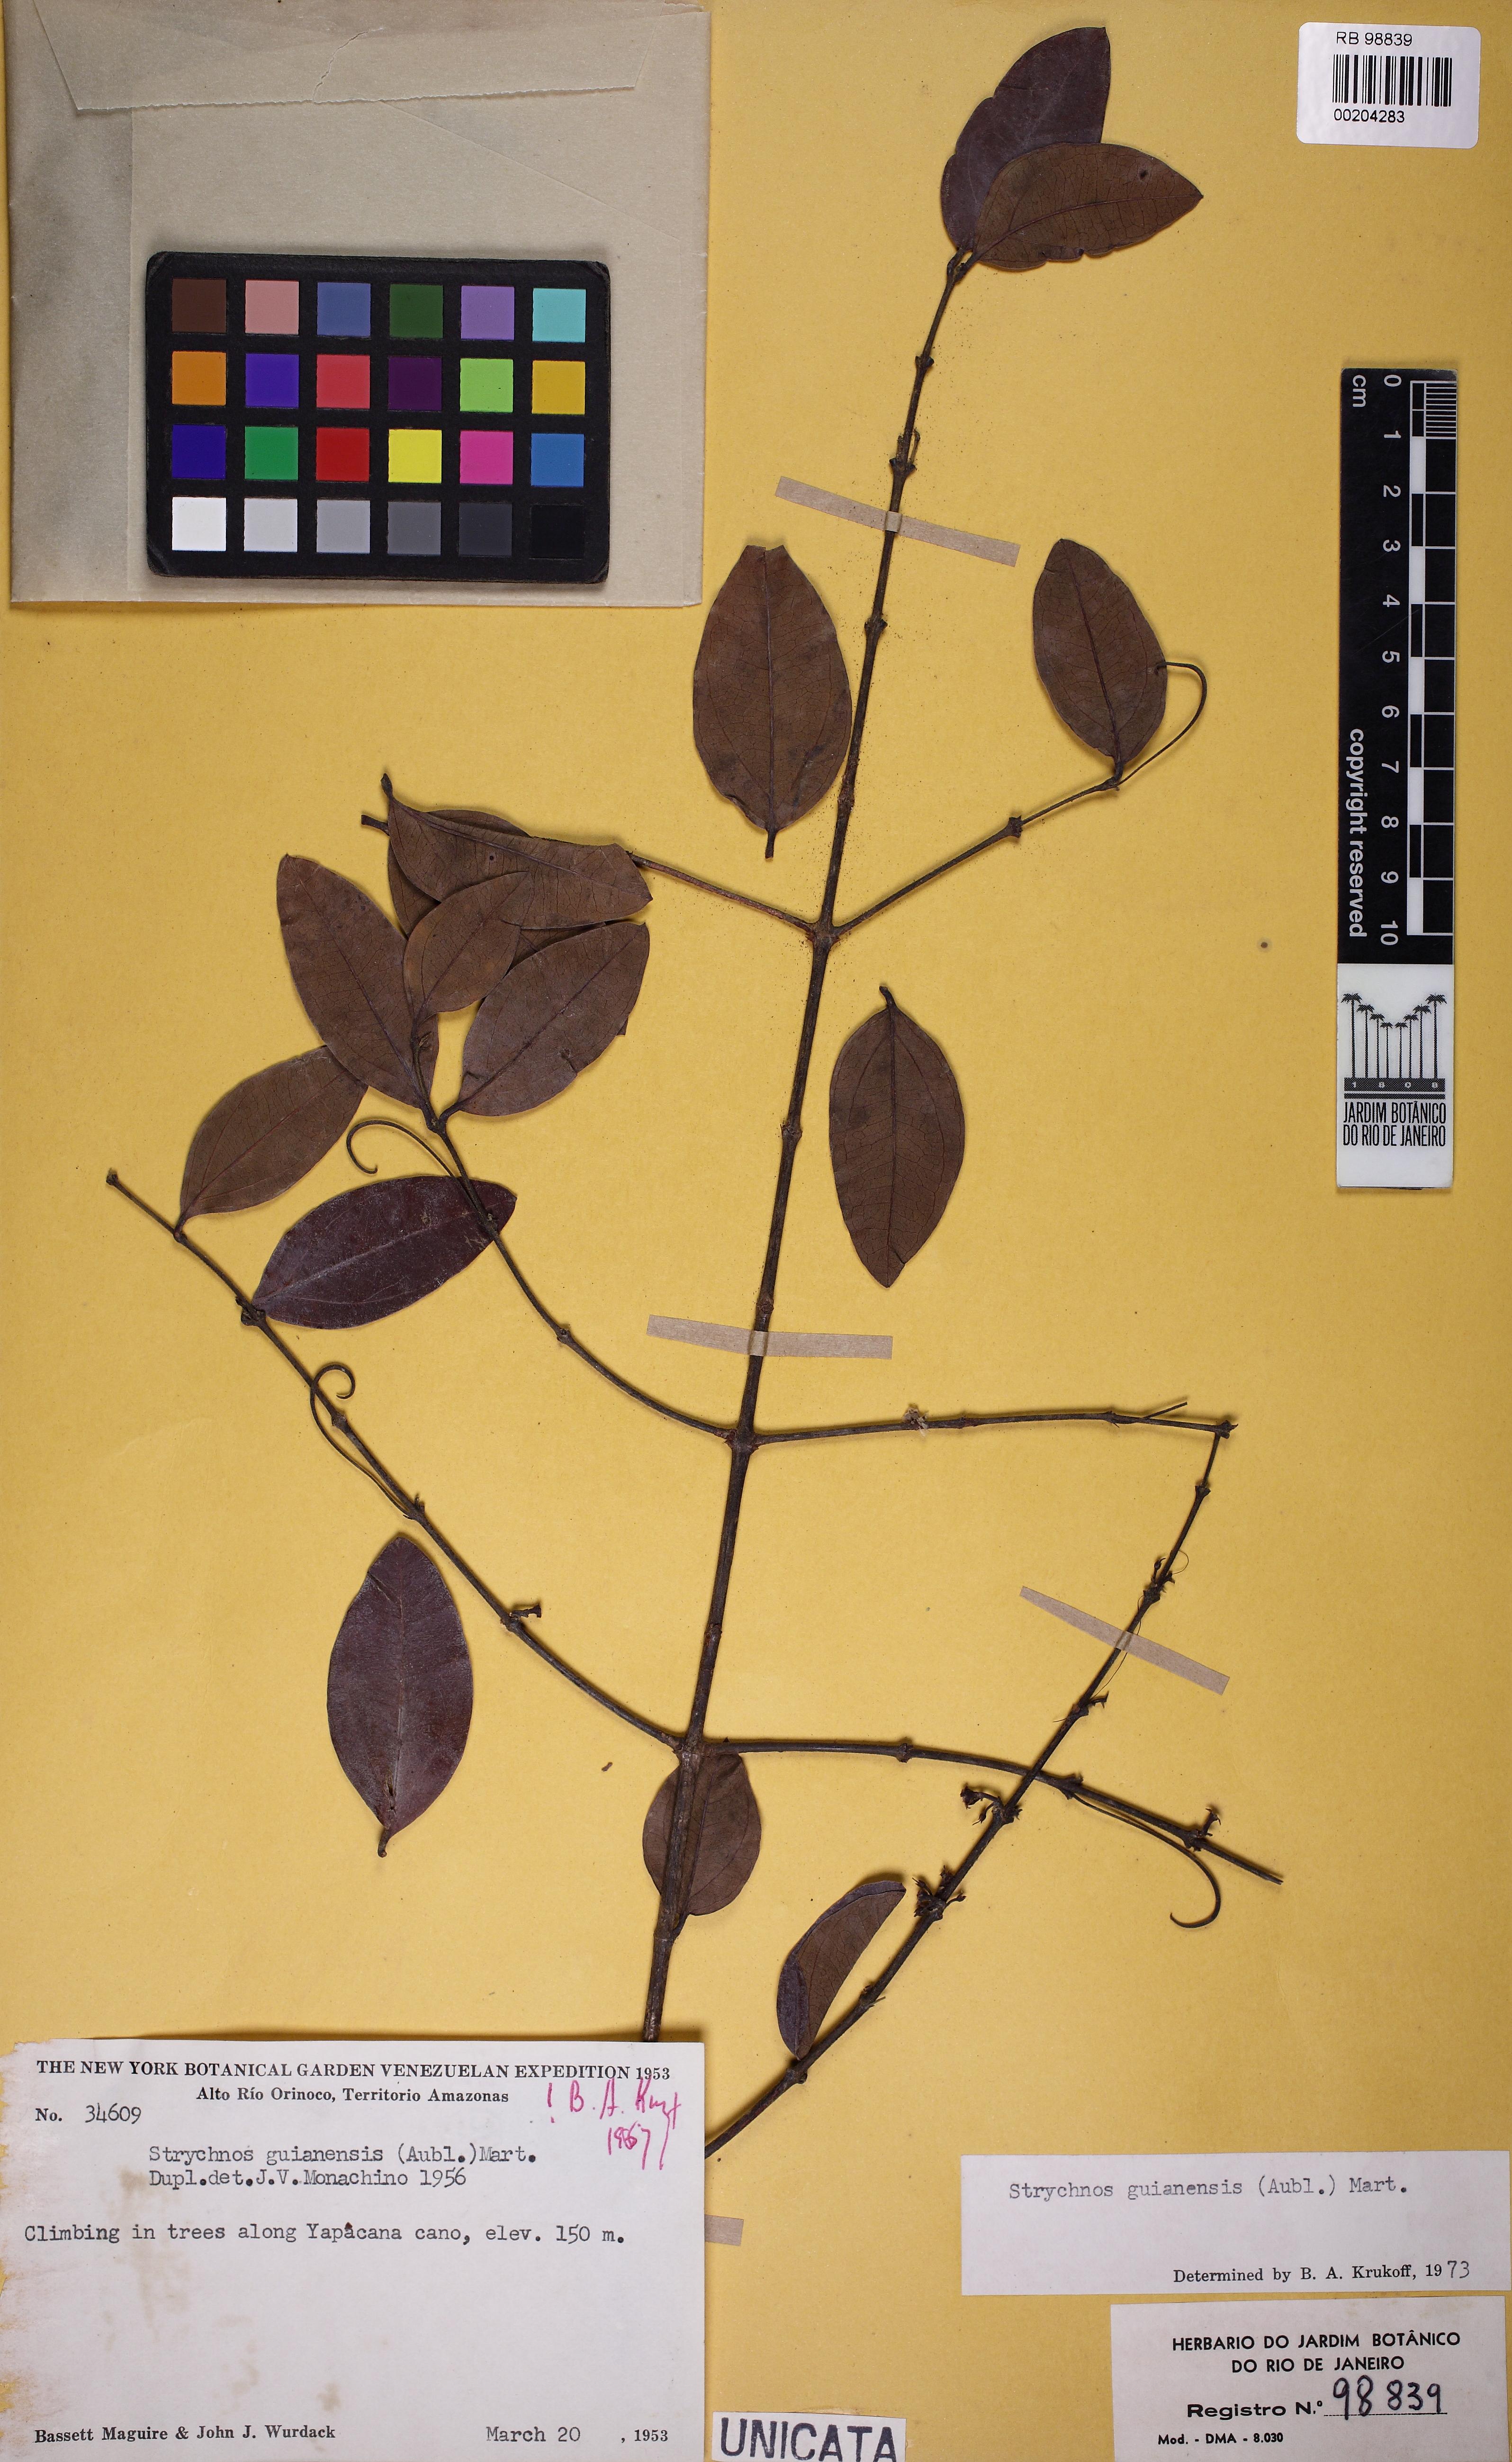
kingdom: Plantae
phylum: Tracheophyta
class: Magnoliopsida
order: Gentianales
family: Loganiaceae
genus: Strychnos
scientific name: Strychnos guianensis
